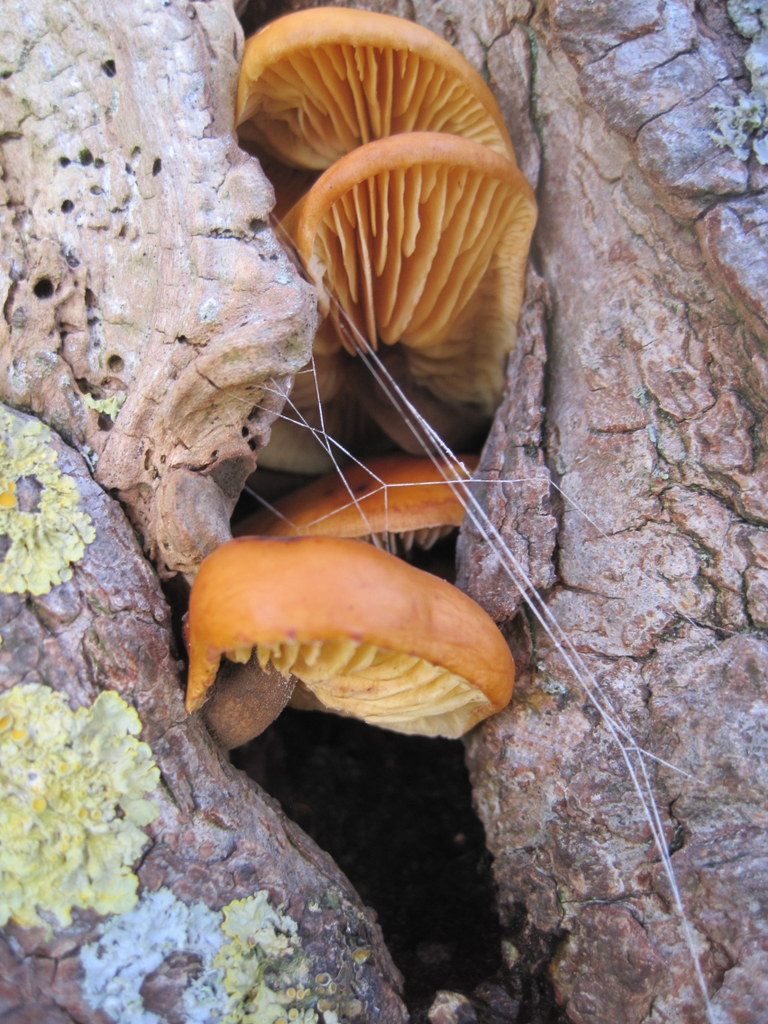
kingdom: Fungi
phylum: Basidiomycota
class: Agaricomycetes
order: Agaricales
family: Physalacriaceae
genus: Flammulina
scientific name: Flammulina elastica
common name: pile-fløjlsfod
